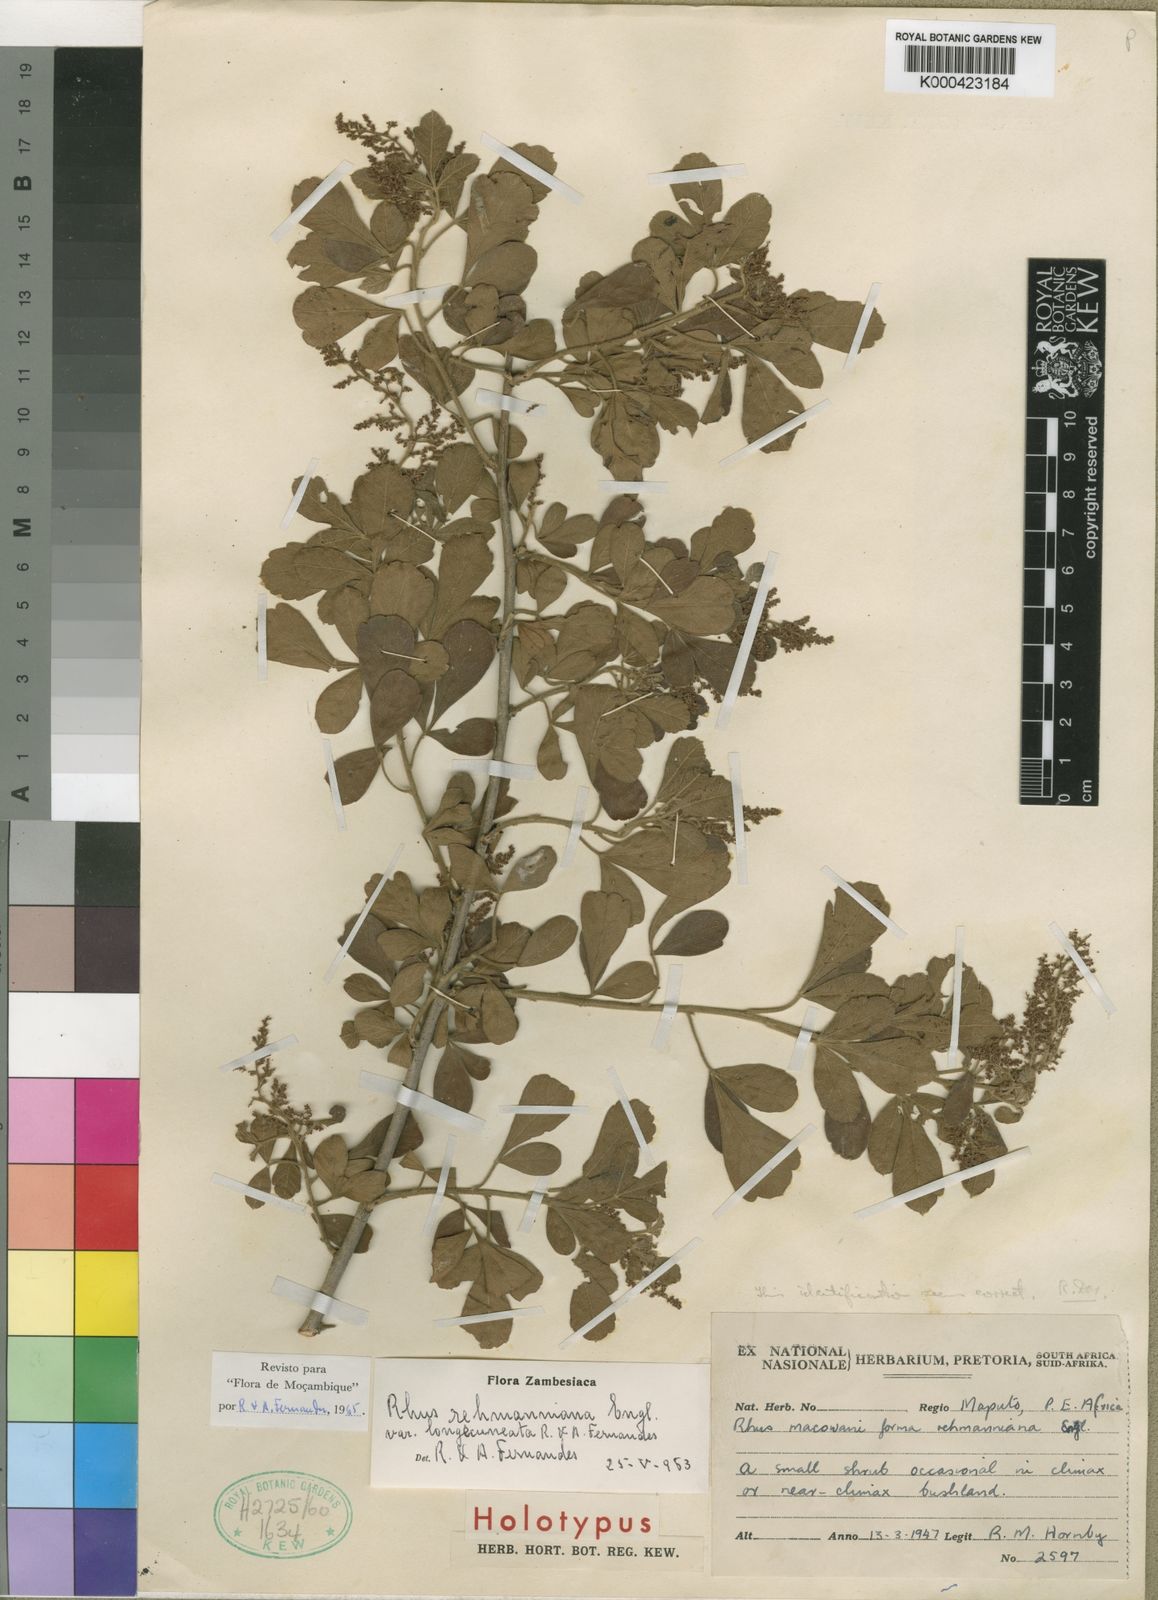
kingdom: Plantae
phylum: Tracheophyta
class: Magnoliopsida
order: Sapindales
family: Anacardiaceae
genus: Searsia
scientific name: Searsia rehmanniana
